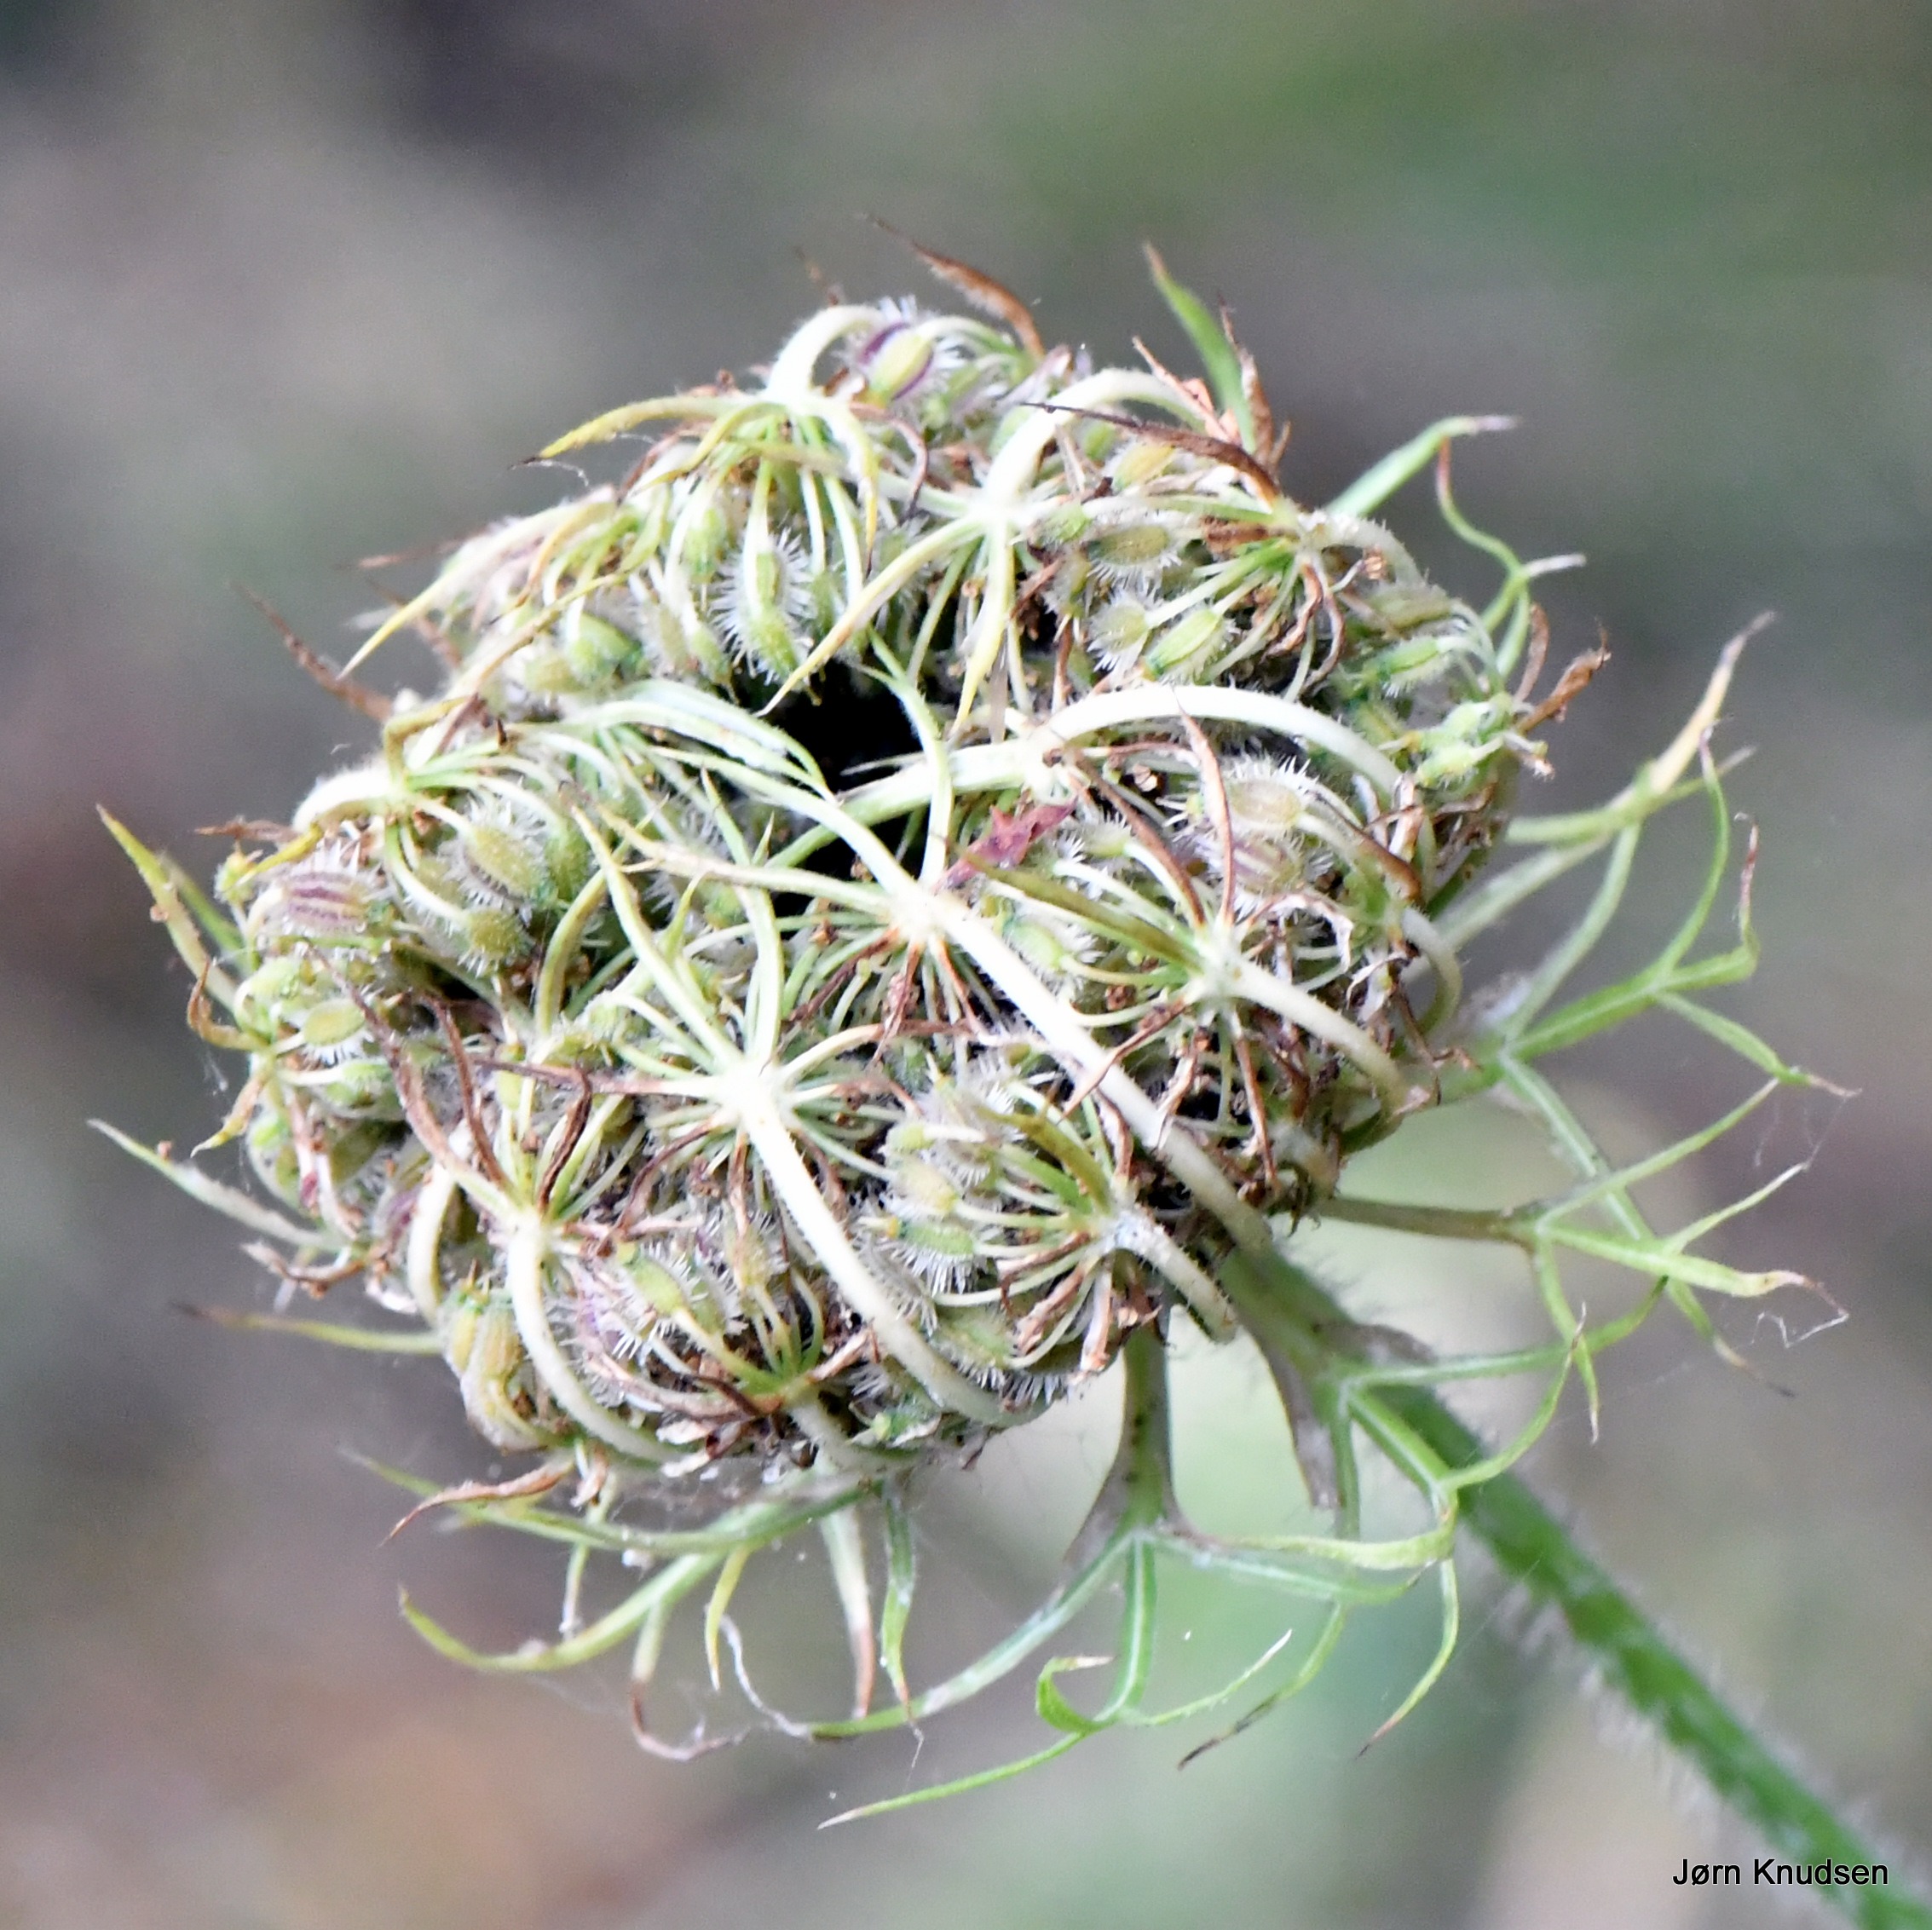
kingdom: Plantae
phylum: Tracheophyta
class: Magnoliopsida
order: Apiales
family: Apiaceae
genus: Daucus
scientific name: Daucus carota
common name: Gulerod
